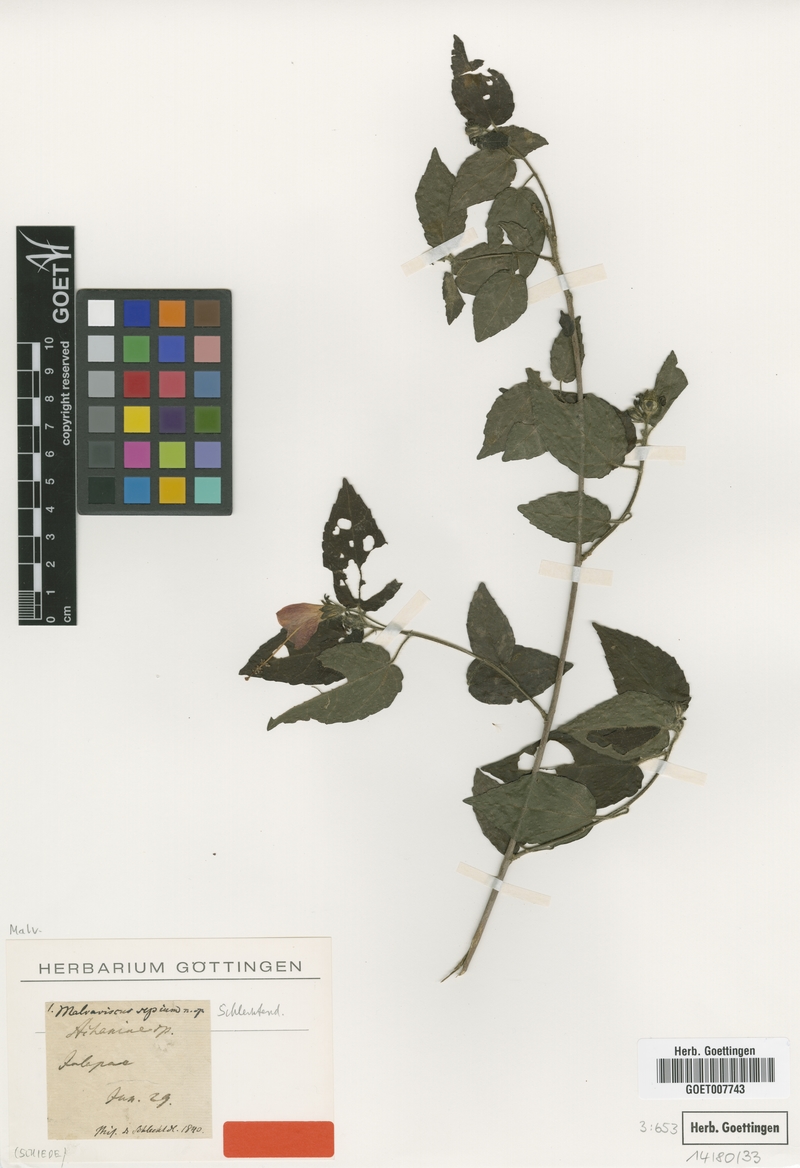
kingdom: Plantae
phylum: Tracheophyta
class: Magnoliopsida
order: Malvales
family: Malvaceae
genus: Malvaviscus
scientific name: Malvaviscus arboreus
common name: Wax mallow
